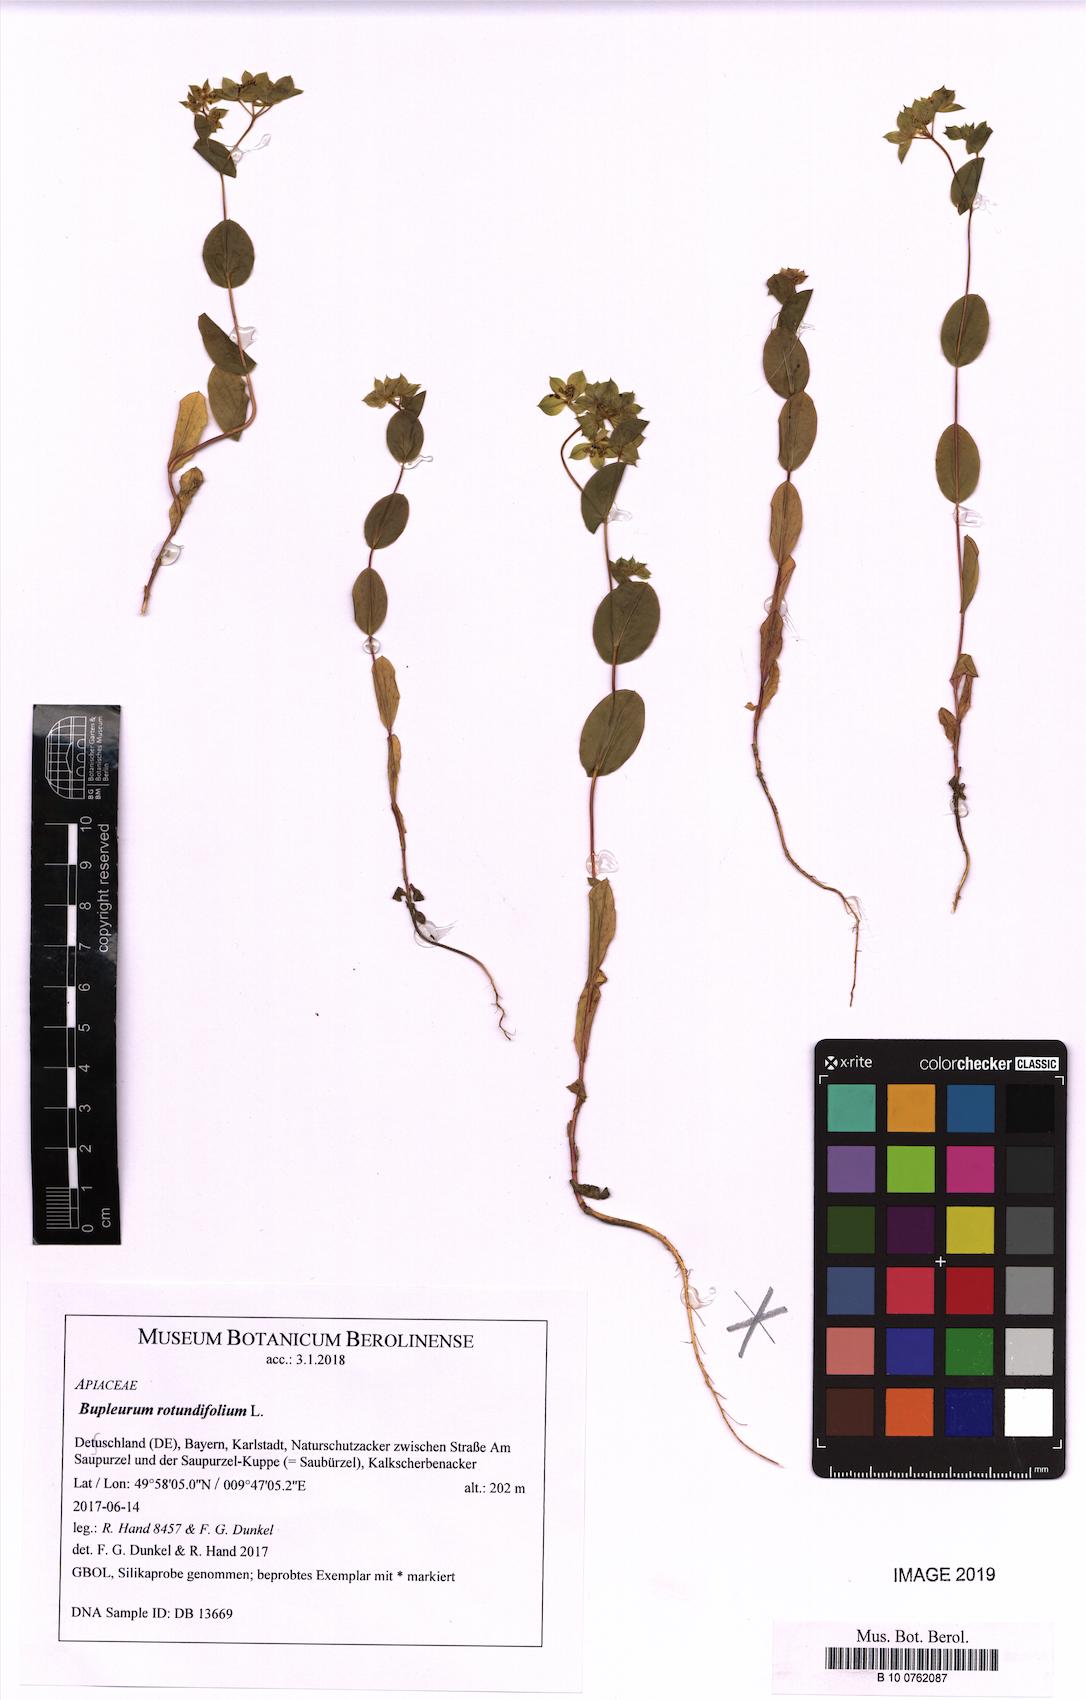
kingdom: Plantae
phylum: Tracheophyta
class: Magnoliopsida
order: Apiales
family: Apiaceae
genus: Bupleurum
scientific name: Bupleurum rotundifolium
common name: Thorow-wax
